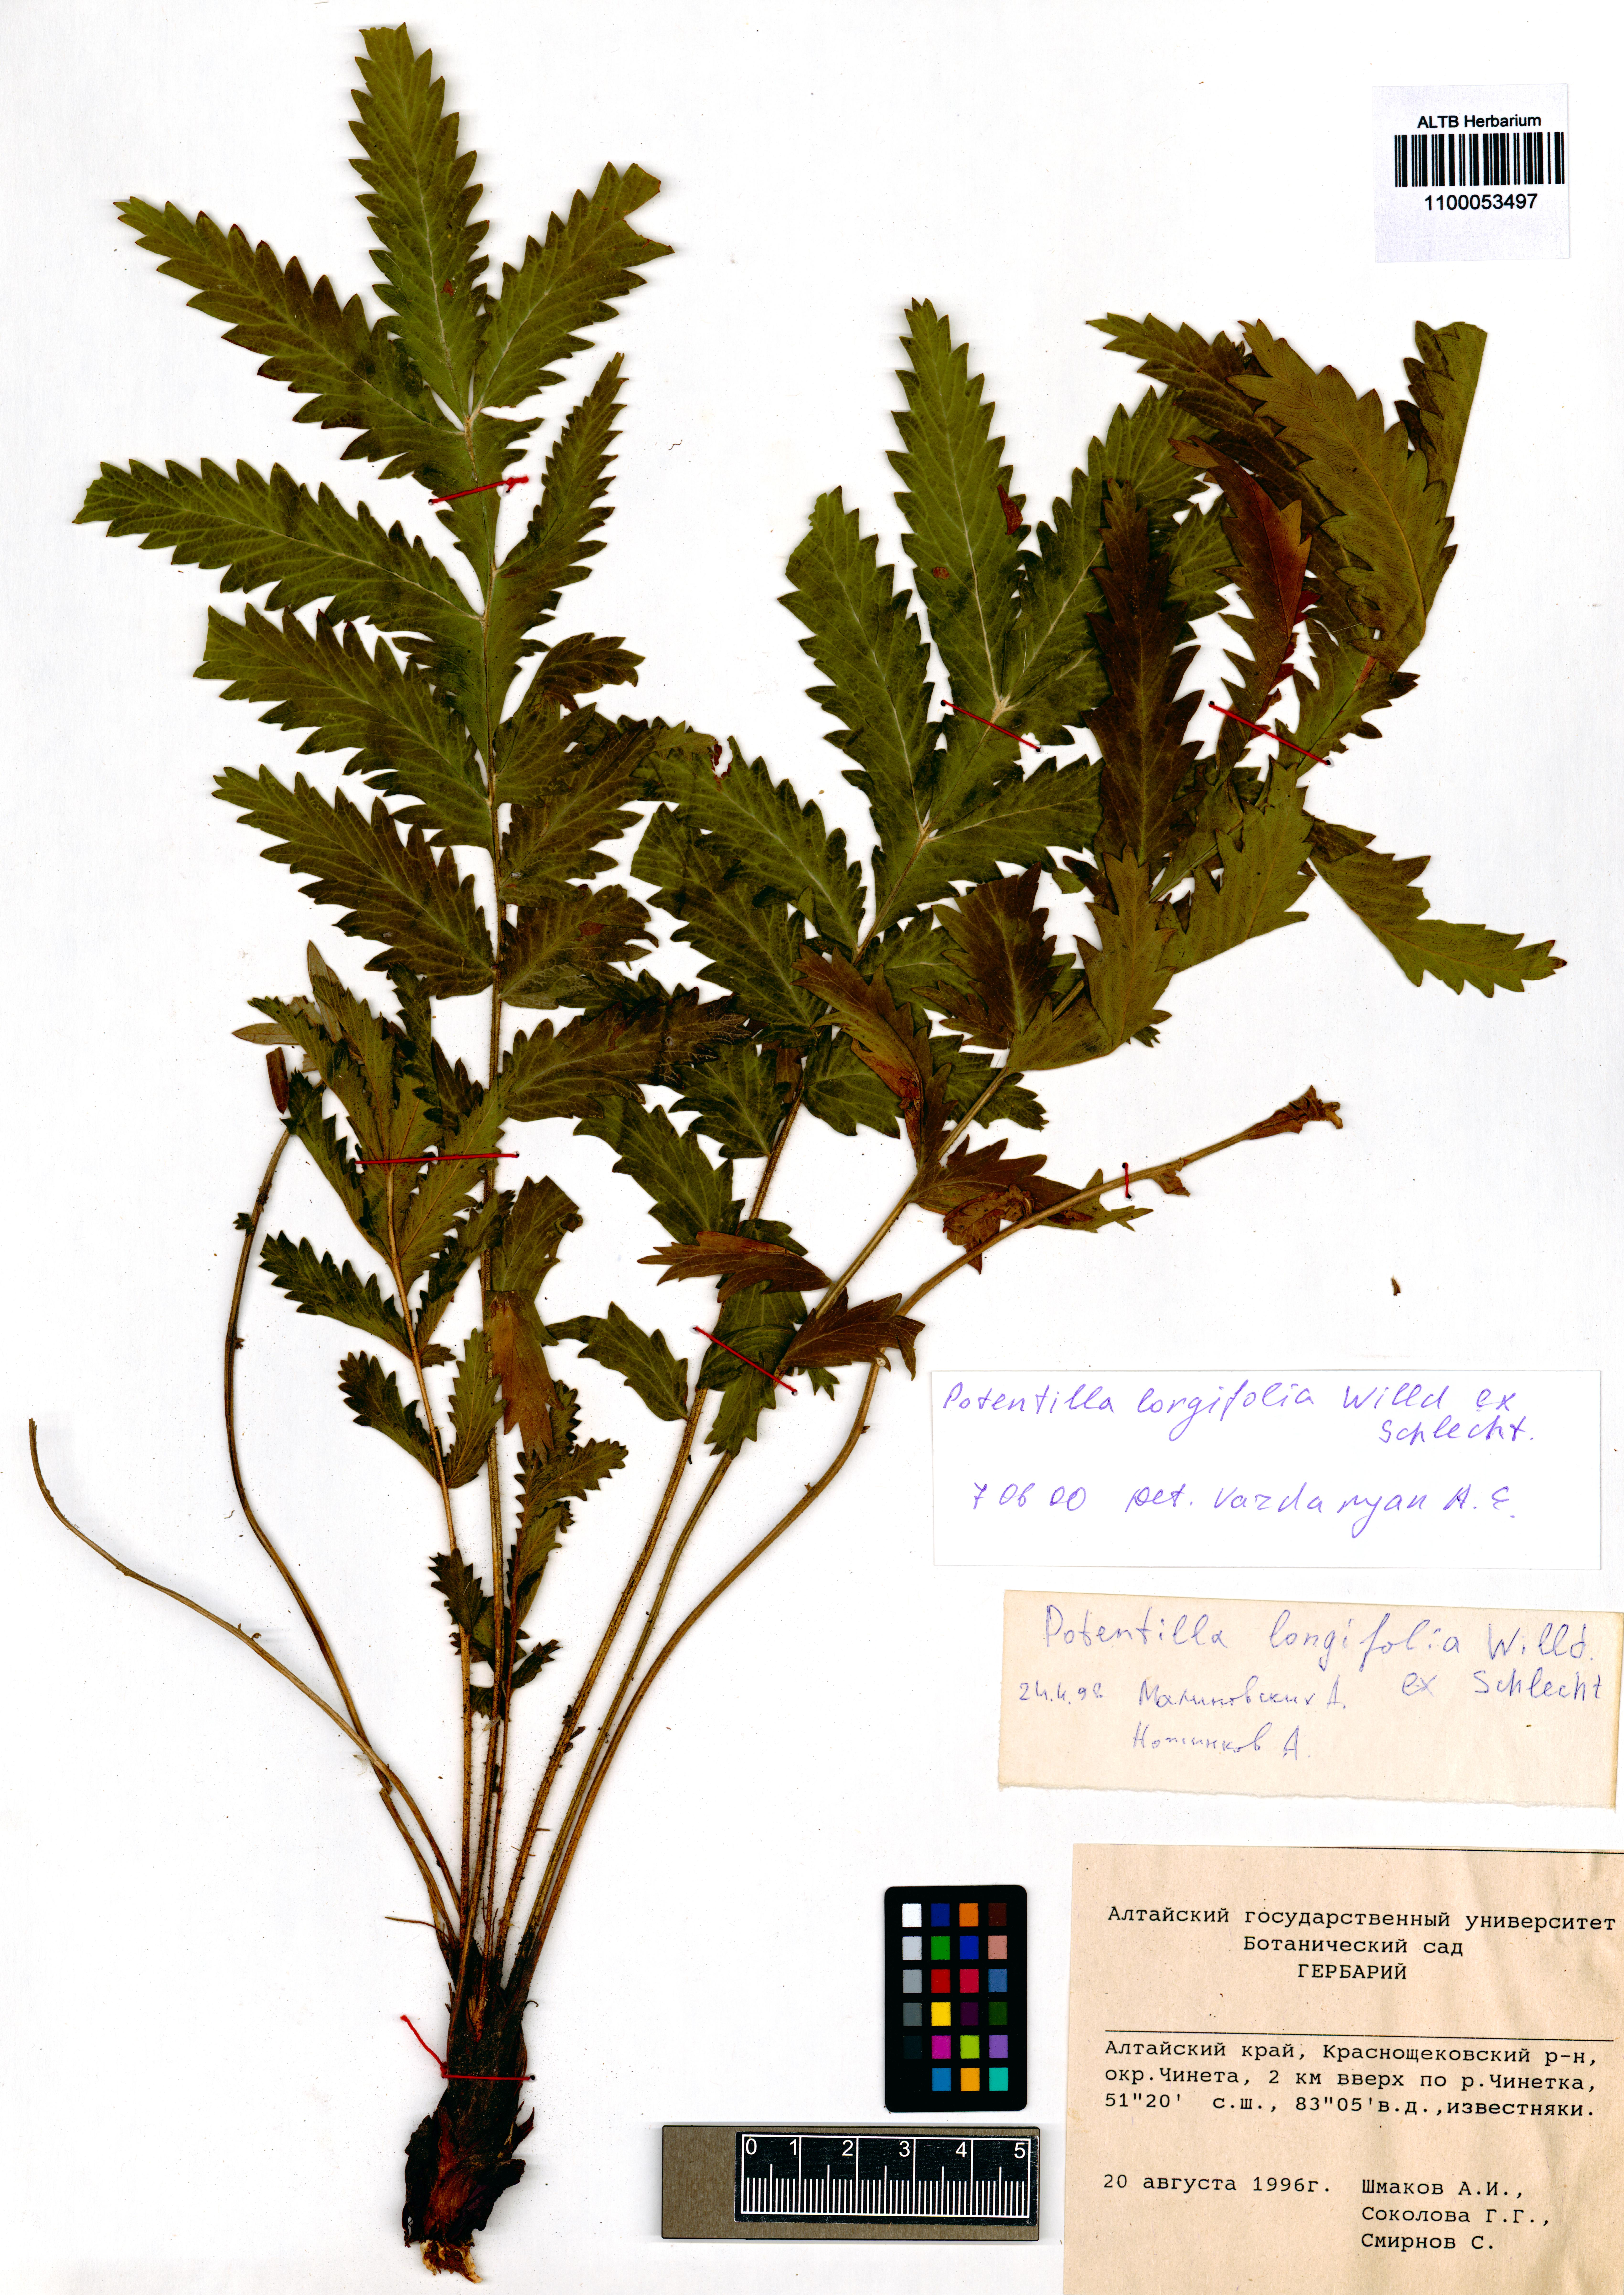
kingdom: Plantae
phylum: Tracheophyta
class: Magnoliopsida
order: Rosales
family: Rosaceae
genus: Potentilla
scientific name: Potentilla longifolia
